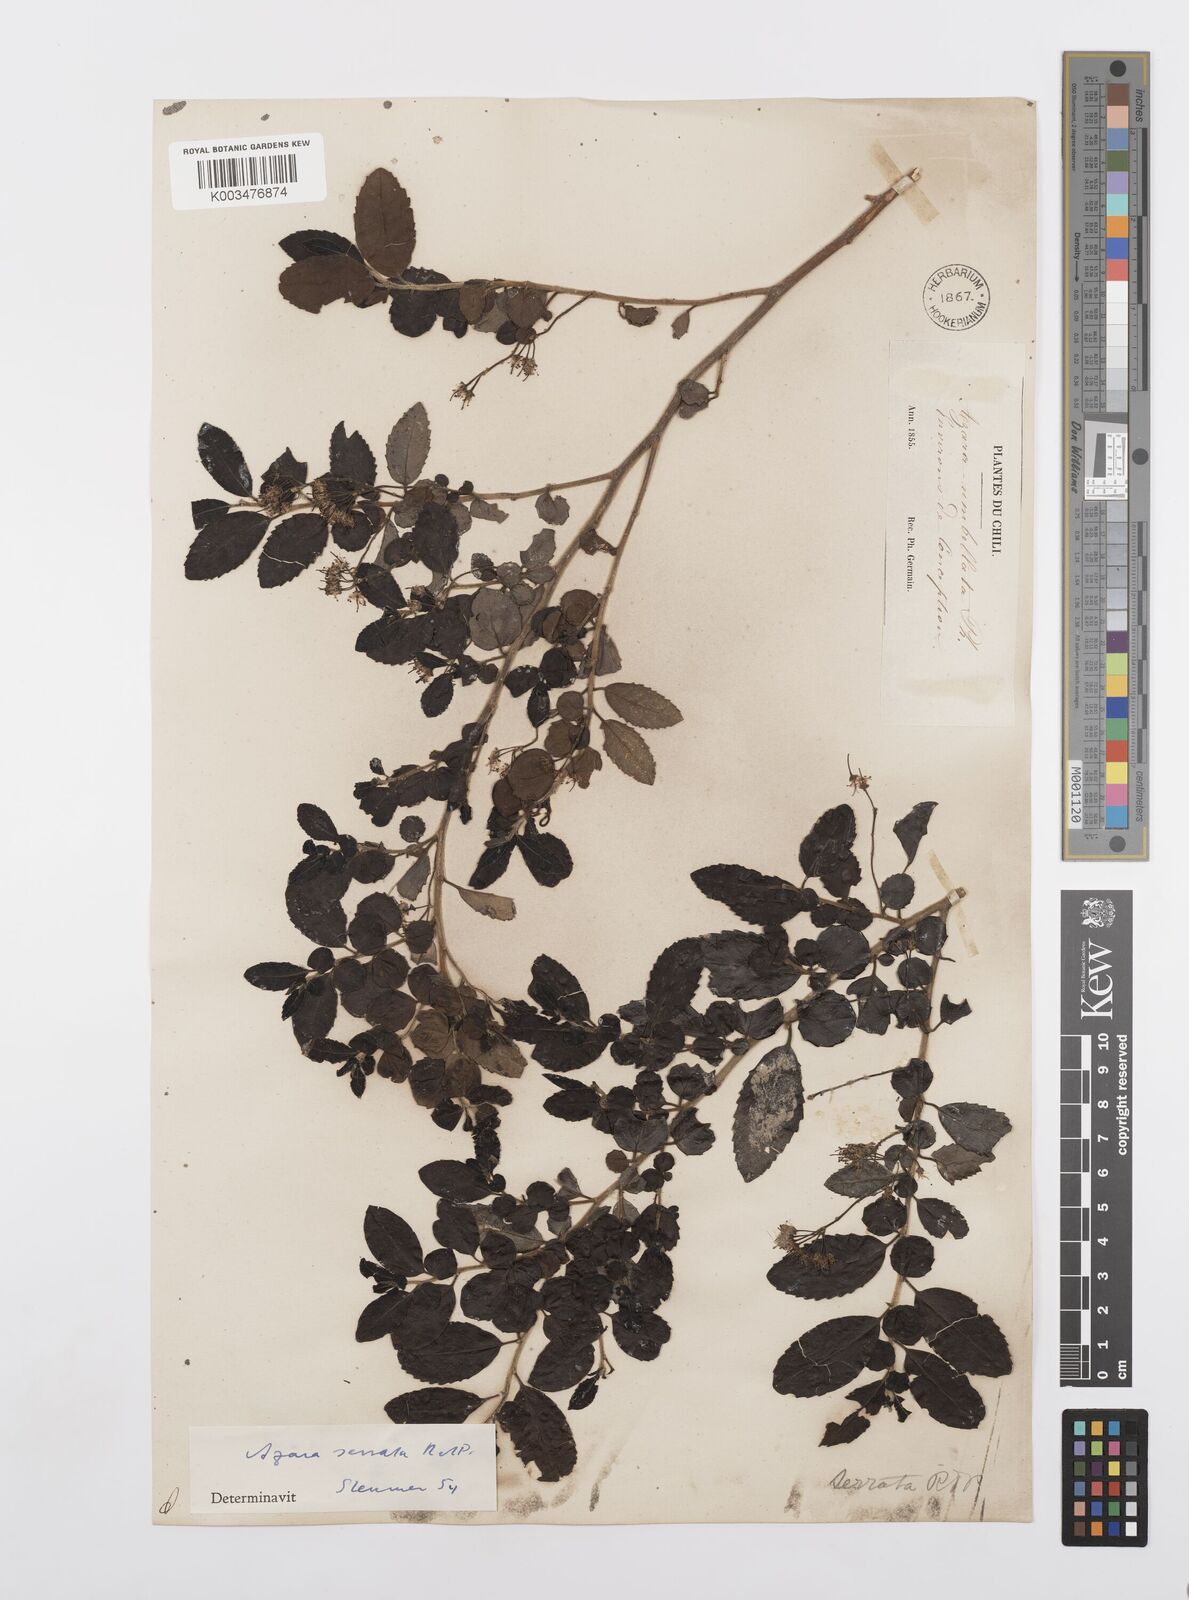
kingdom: Plantae
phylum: Tracheophyta
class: Magnoliopsida
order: Malpighiales
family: Salicaceae
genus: Azara
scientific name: Azara serrata
